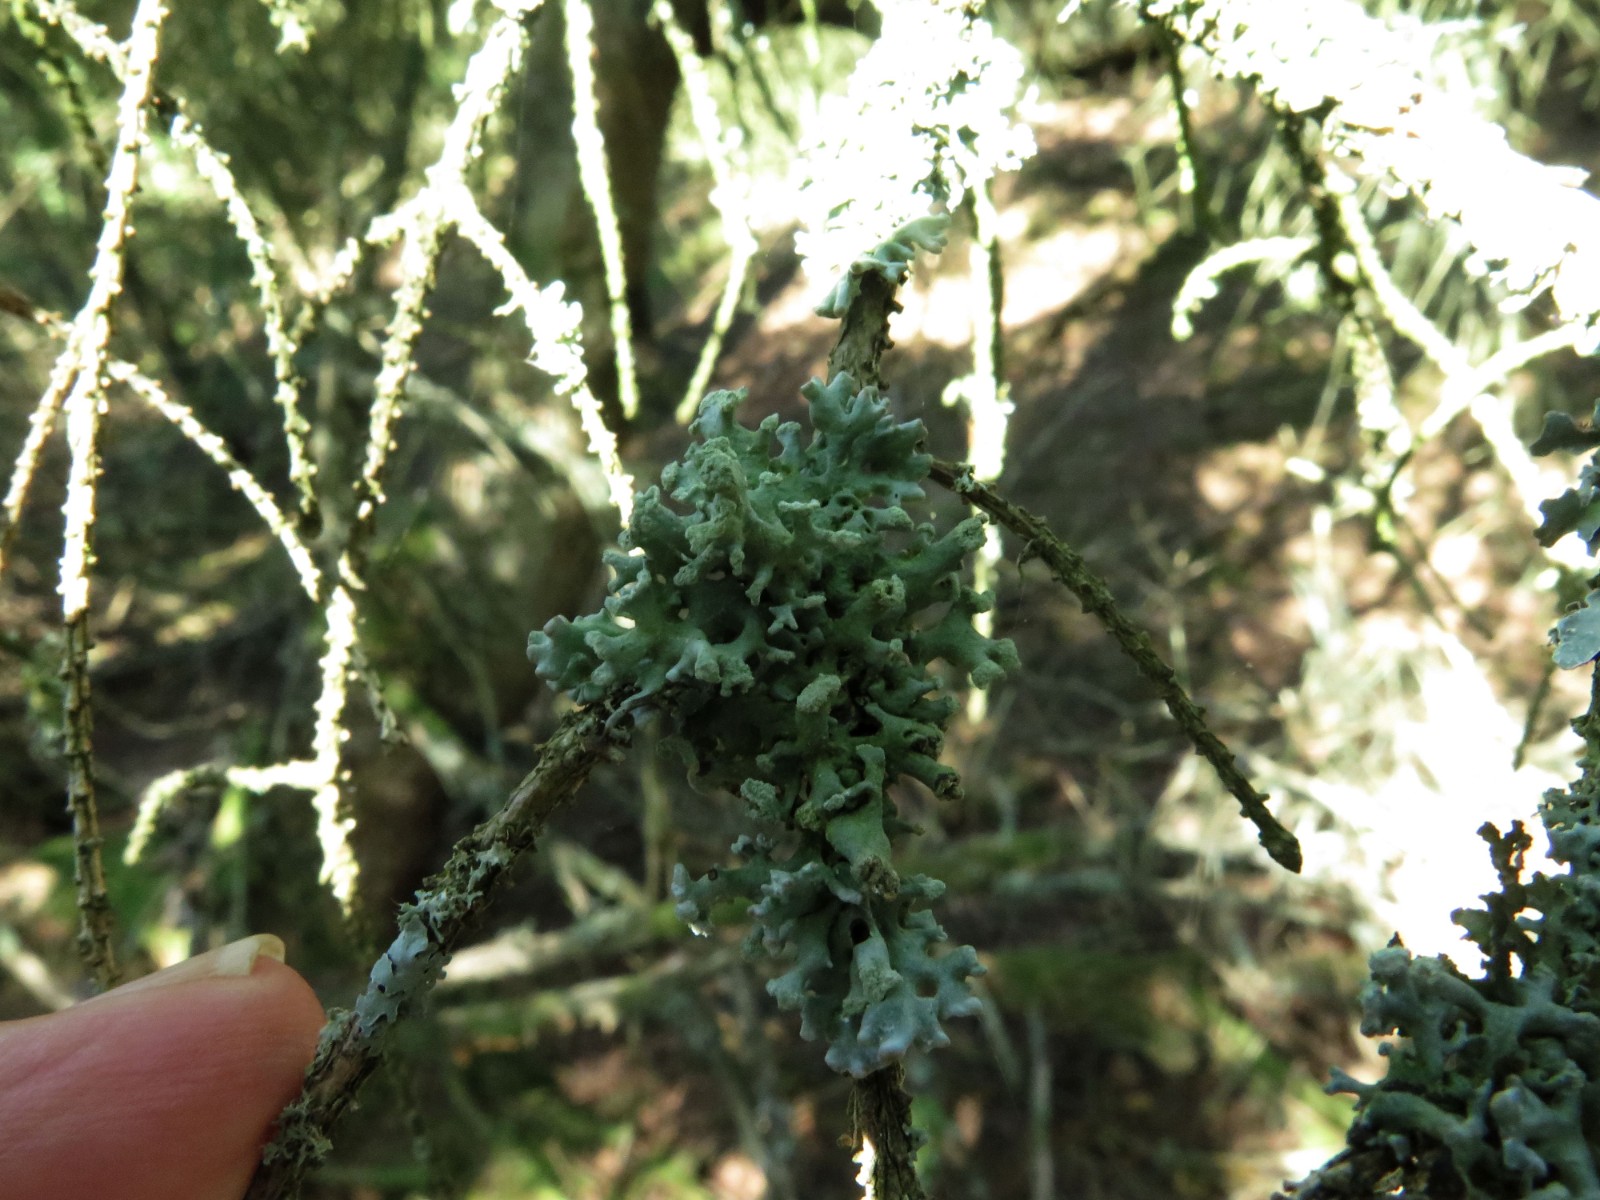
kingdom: Fungi
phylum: Ascomycota
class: Lecanoromycetes
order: Lecanorales
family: Parmeliaceae
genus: Hypogymnia
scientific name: Hypogymnia physodes
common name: almindelig kvistlav
